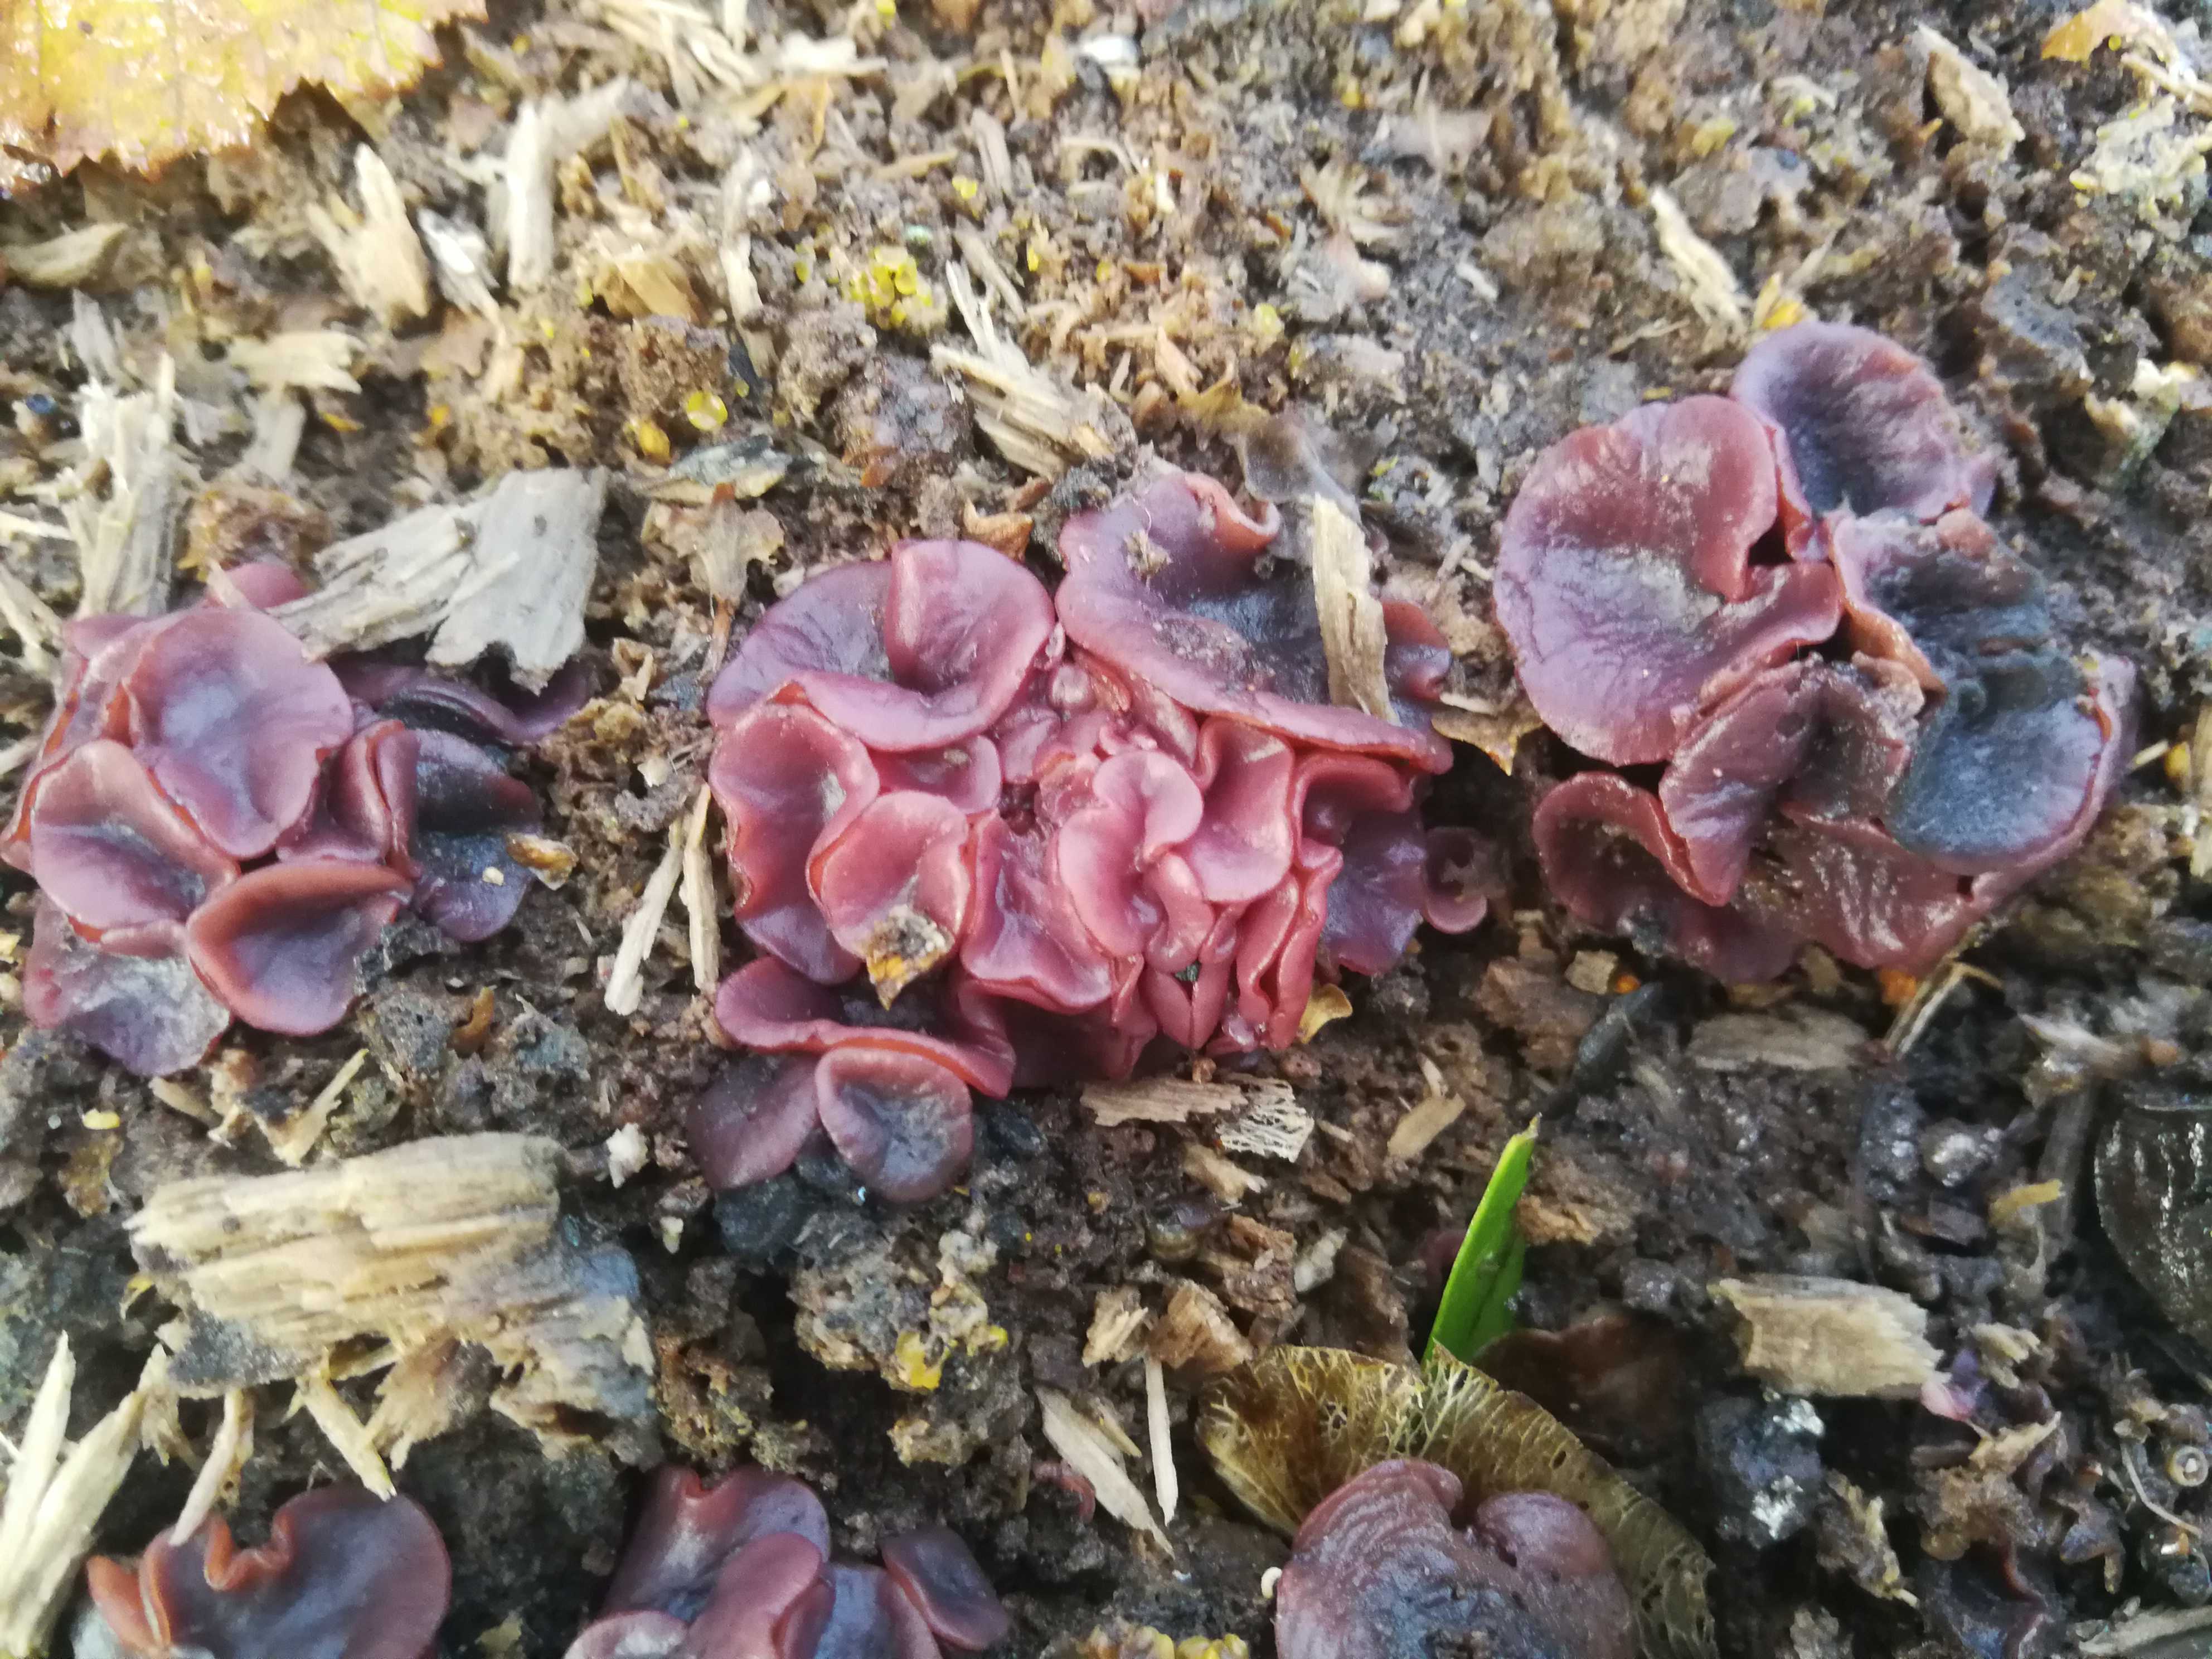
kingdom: Fungi
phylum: Ascomycota
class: Leotiomycetes
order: Helotiales
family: Gelatinodiscaceae
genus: Ascocoryne
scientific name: Ascocoryne cylichnium
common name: stor sejskive
